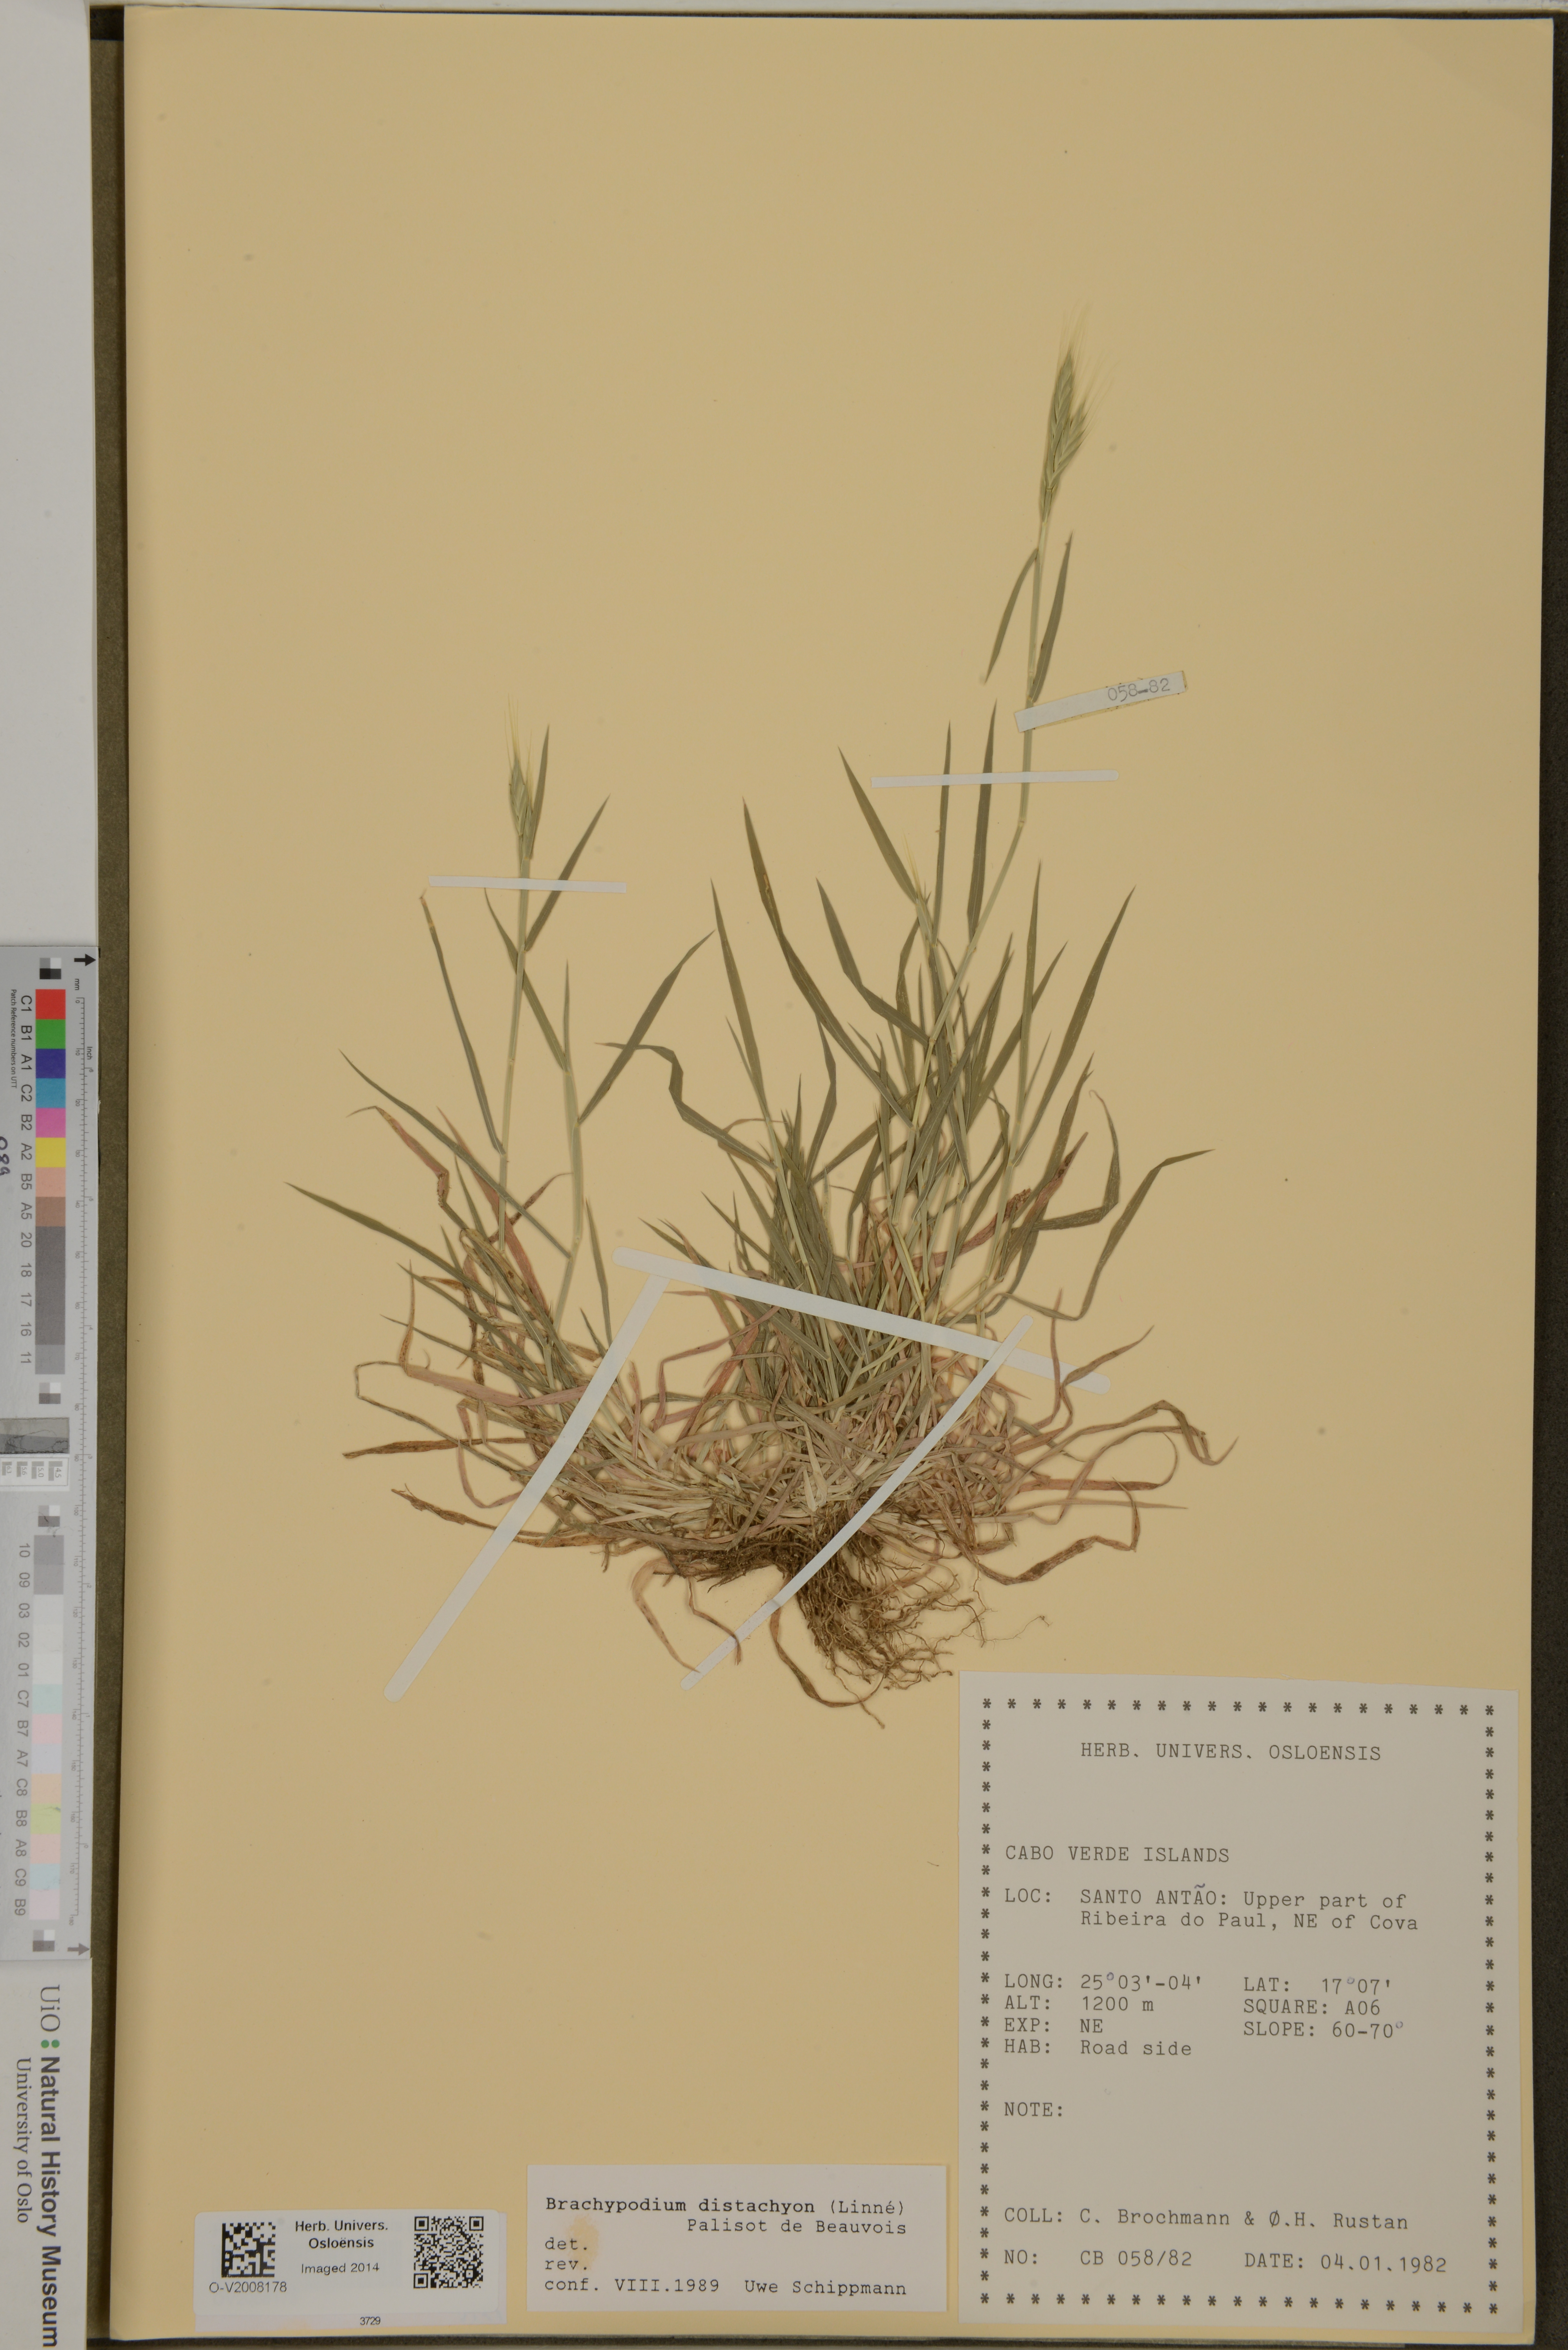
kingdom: Plantae
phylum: Tracheophyta
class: Liliopsida
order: Poales
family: Poaceae
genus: Brachypodium
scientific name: Brachypodium distachyon
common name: Stiff brome
